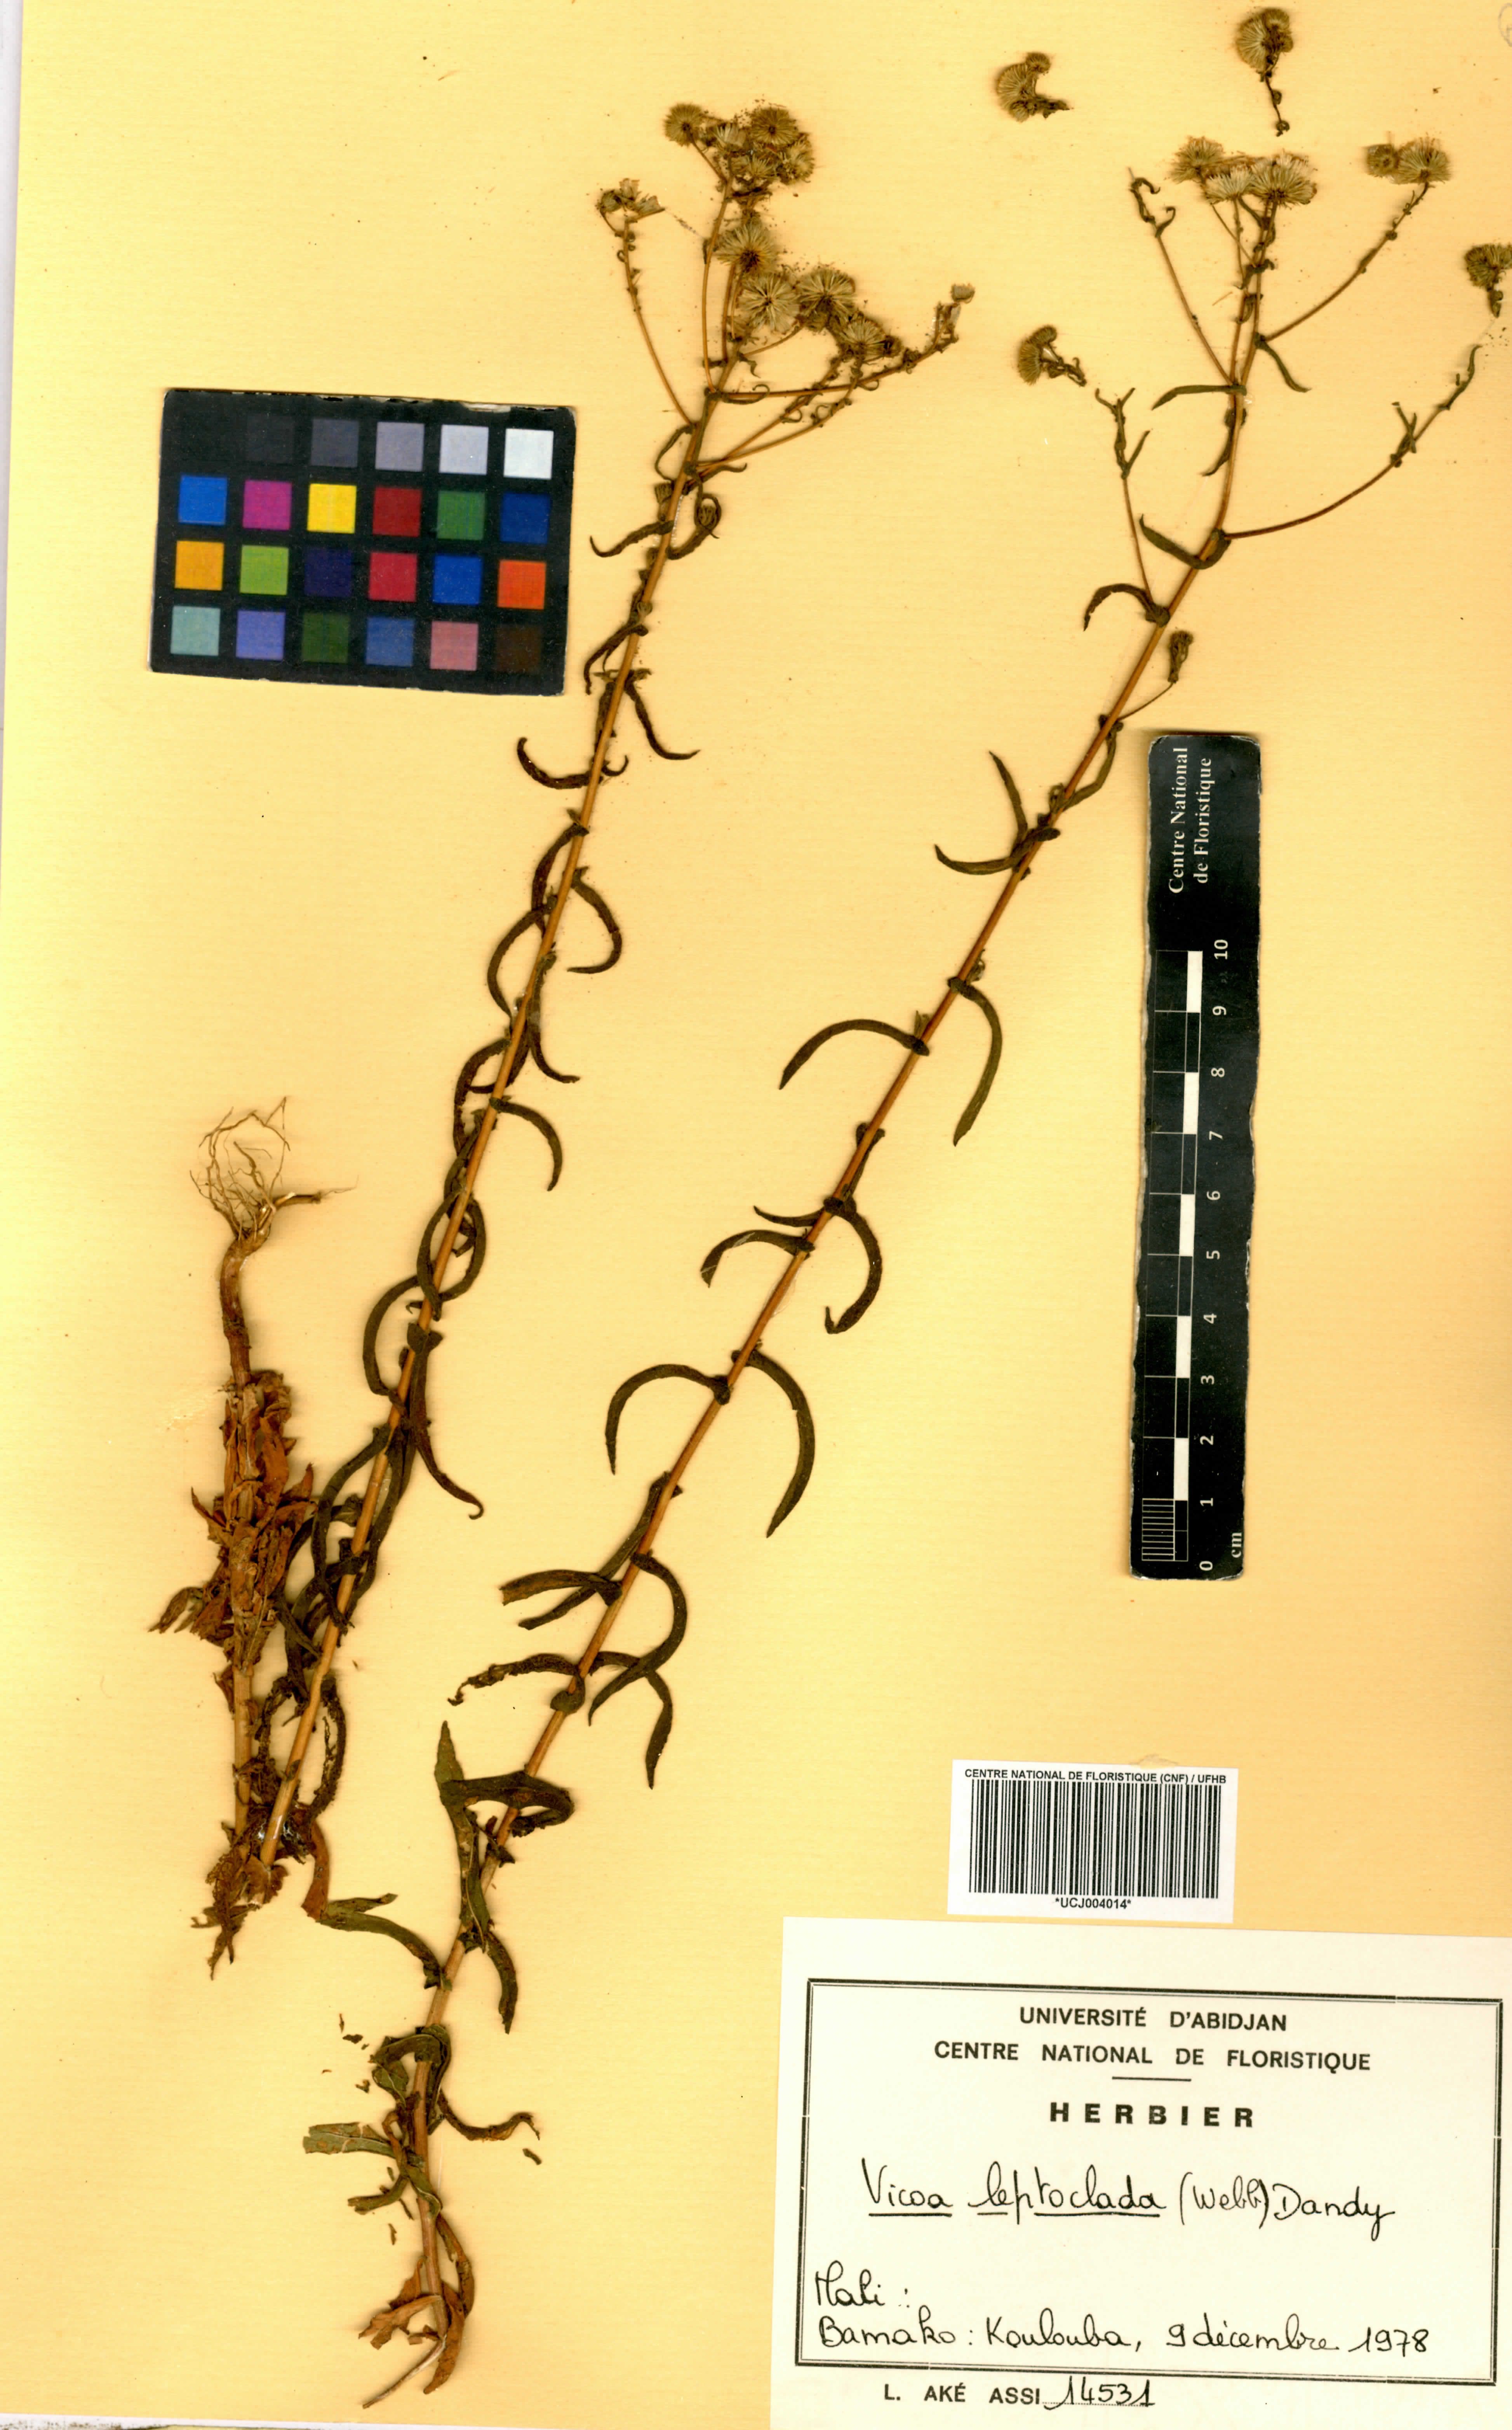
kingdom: Plantae
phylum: Tracheophyta
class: Magnoliopsida
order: Asterales
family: Asteraceae
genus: Vicoa
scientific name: Vicoa indica
